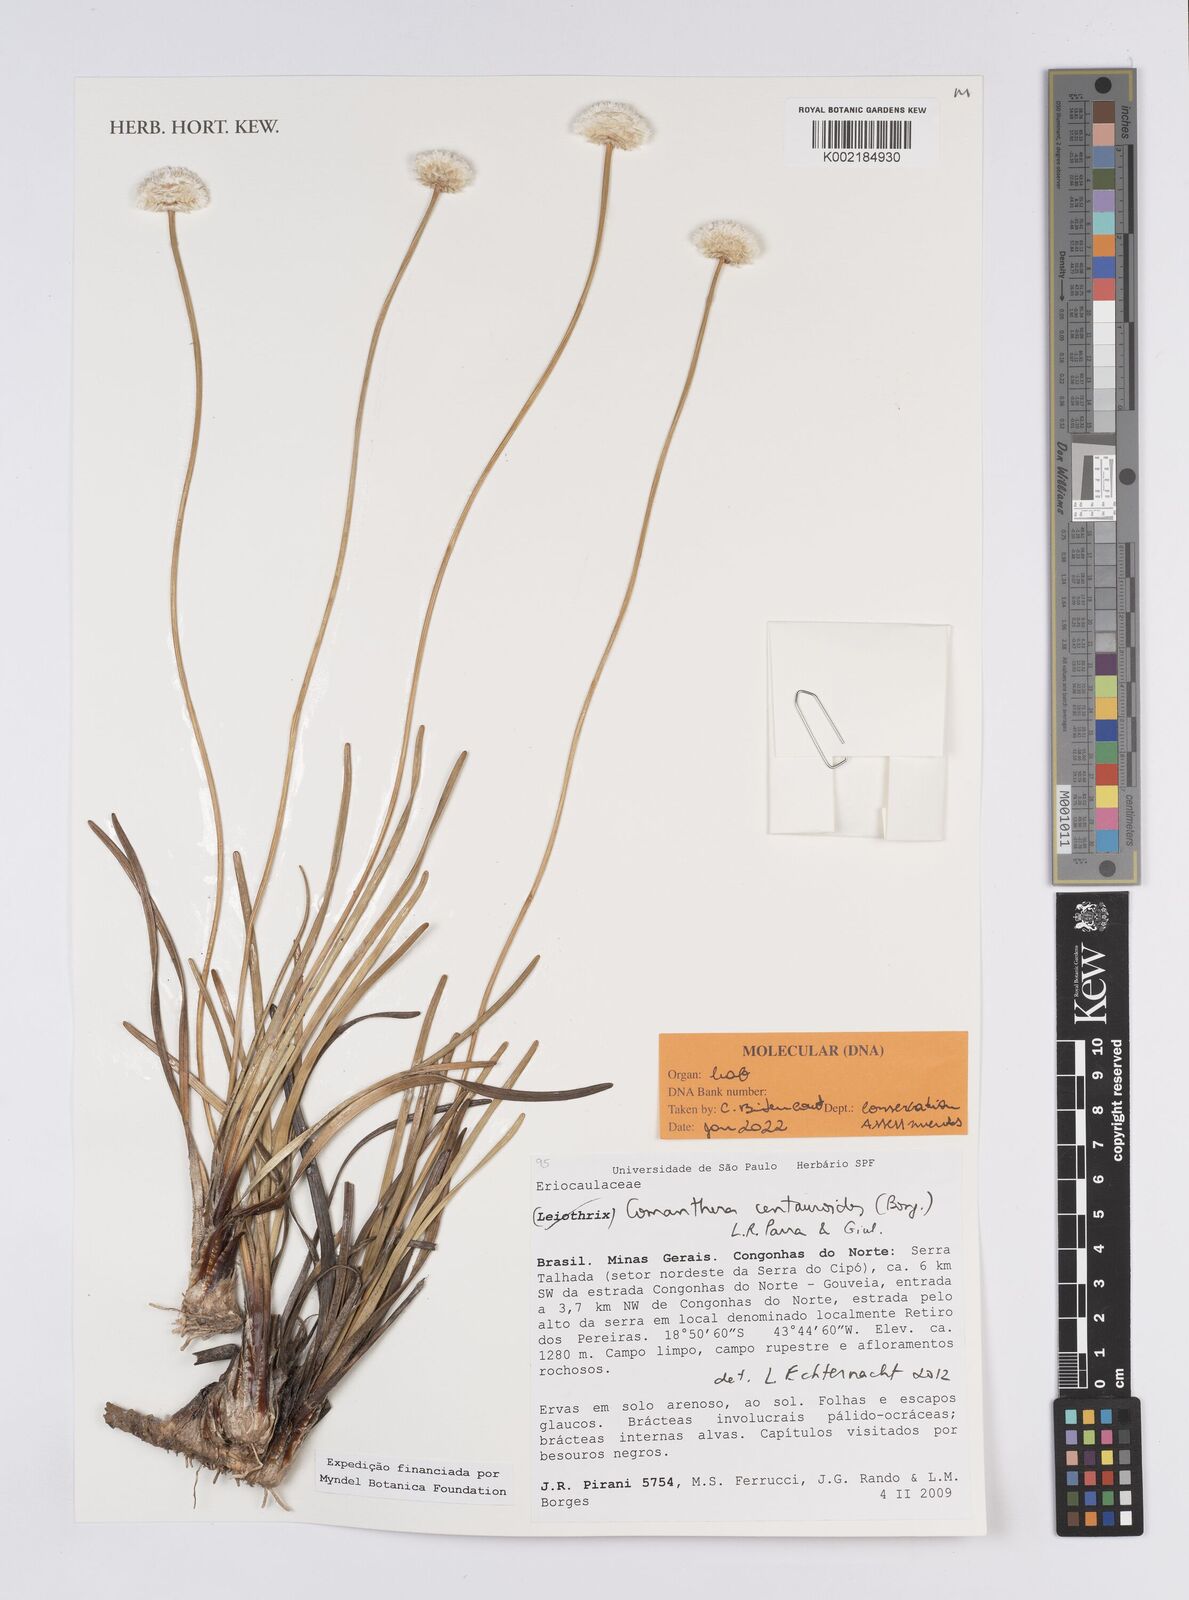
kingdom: Plantae
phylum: Tracheophyta
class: Liliopsida
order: Poales
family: Eriocaulaceae
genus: Comanthera
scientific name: Comanthera centauroides
